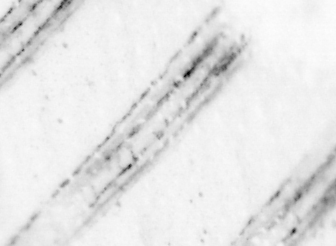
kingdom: Animalia
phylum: Chordata
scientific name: Chordata
